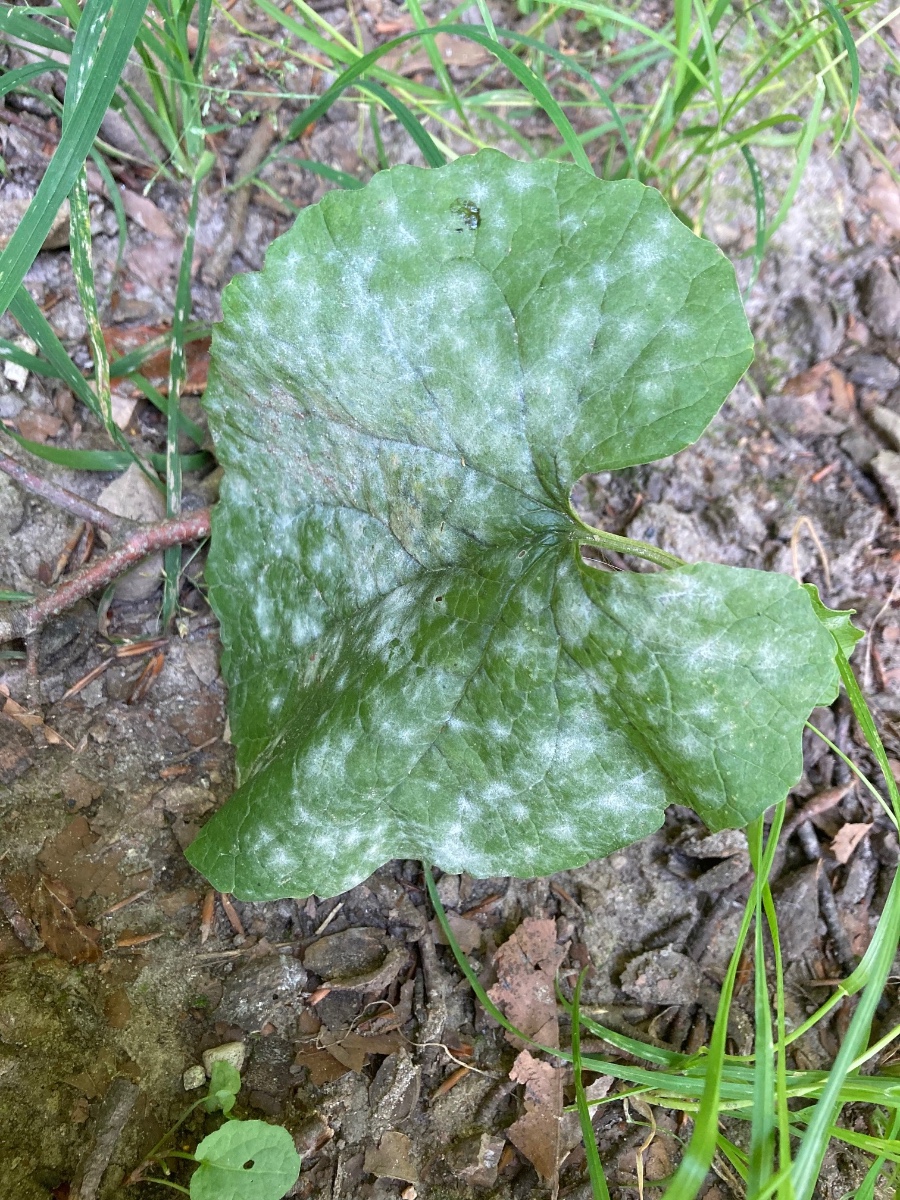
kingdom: Fungi
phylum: Ascomycota
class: Leotiomycetes
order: Helotiales
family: Erysiphaceae
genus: Erysiphe
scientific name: Erysiphe cruciferarum
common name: korsblomst-meldug
